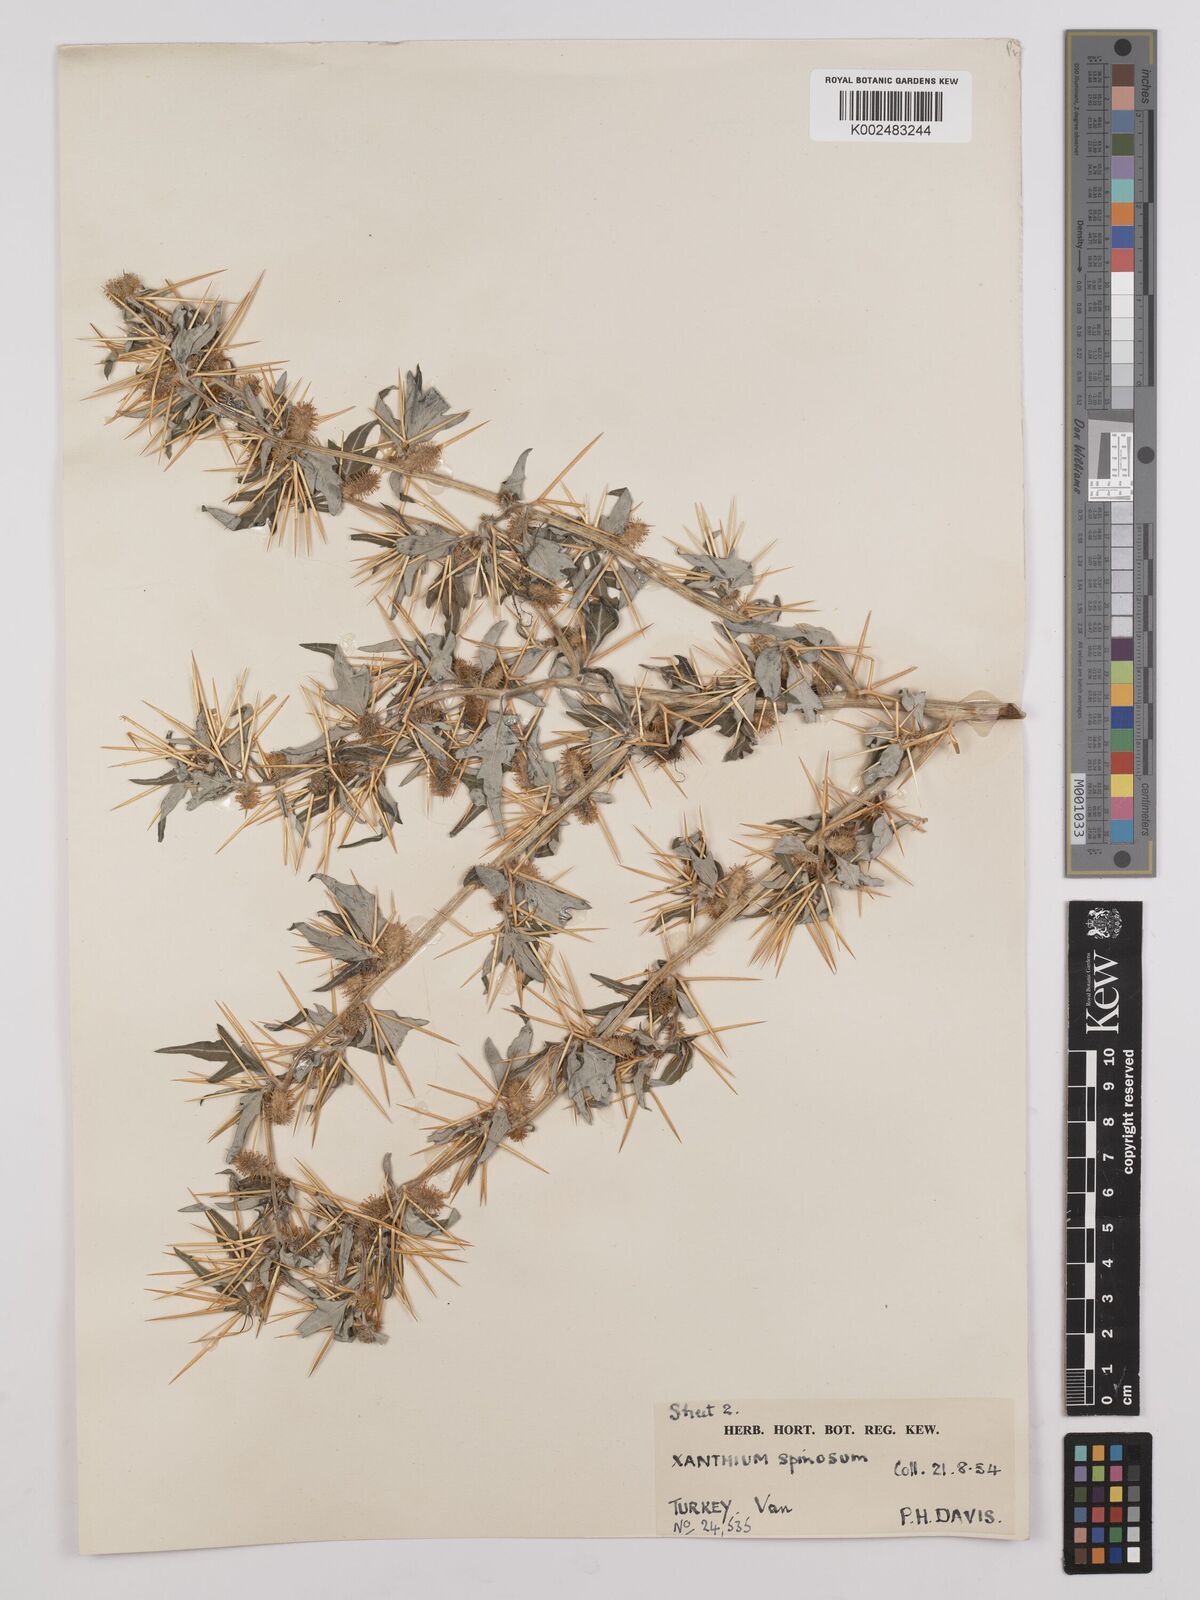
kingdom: Plantae
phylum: Tracheophyta
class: Magnoliopsida
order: Asterales
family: Asteraceae
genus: Xanthium
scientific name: Xanthium spinosum
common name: Spiny cocklebur
